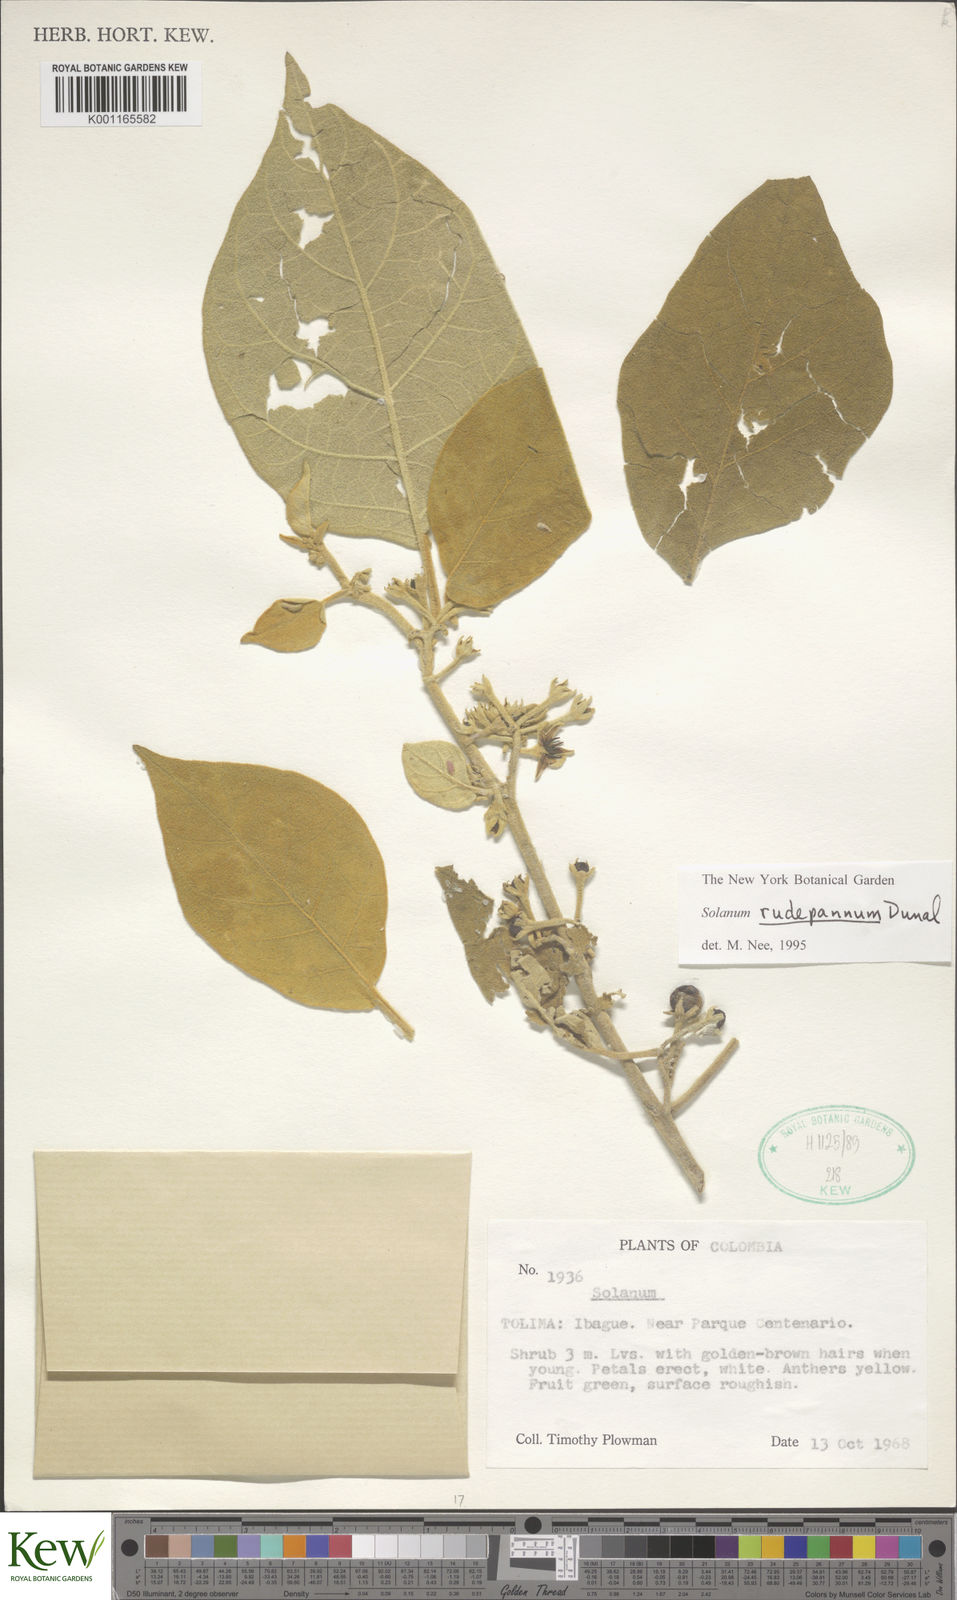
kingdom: Plantae
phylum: Tracheophyta
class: Magnoliopsida
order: Solanales
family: Solanaceae
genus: Solanum
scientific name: Solanum rude-pannum
